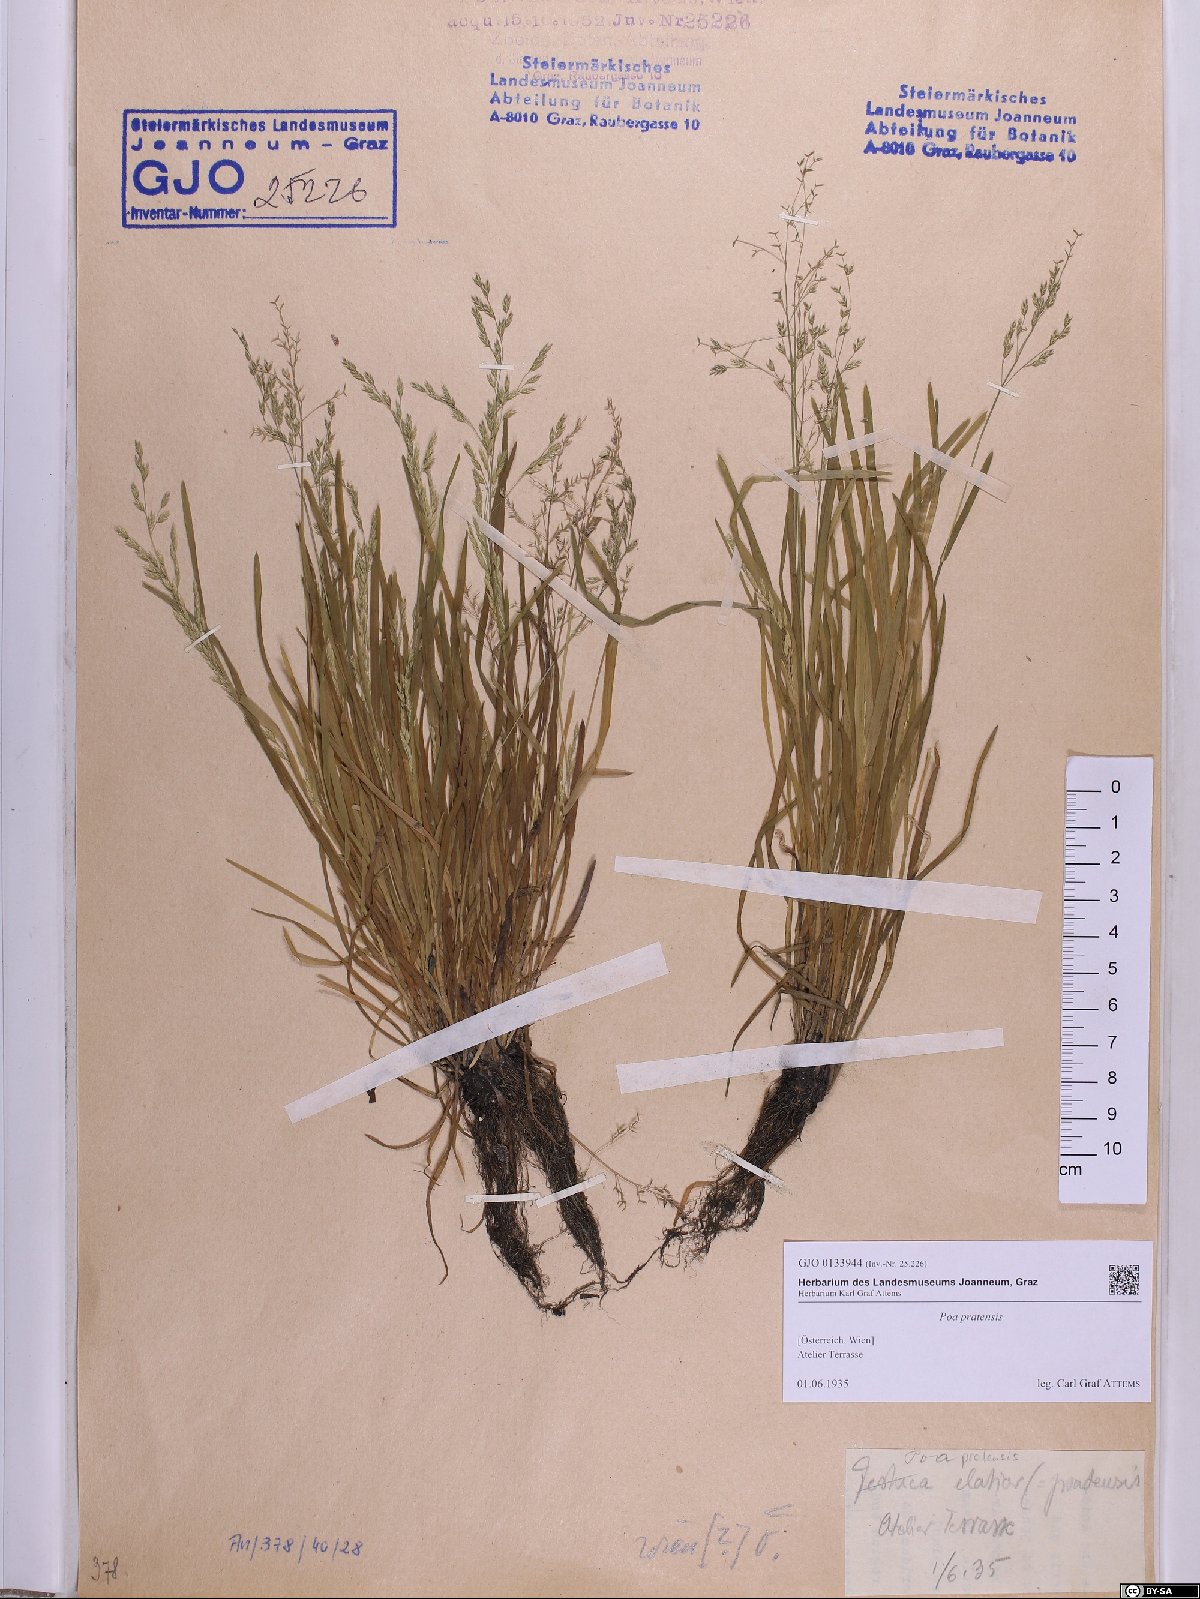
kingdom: Plantae
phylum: Tracheophyta
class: Liliopsida
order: Poales
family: Poaceae
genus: Poa
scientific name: Poa pratensis
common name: Kentucky bluegrass
